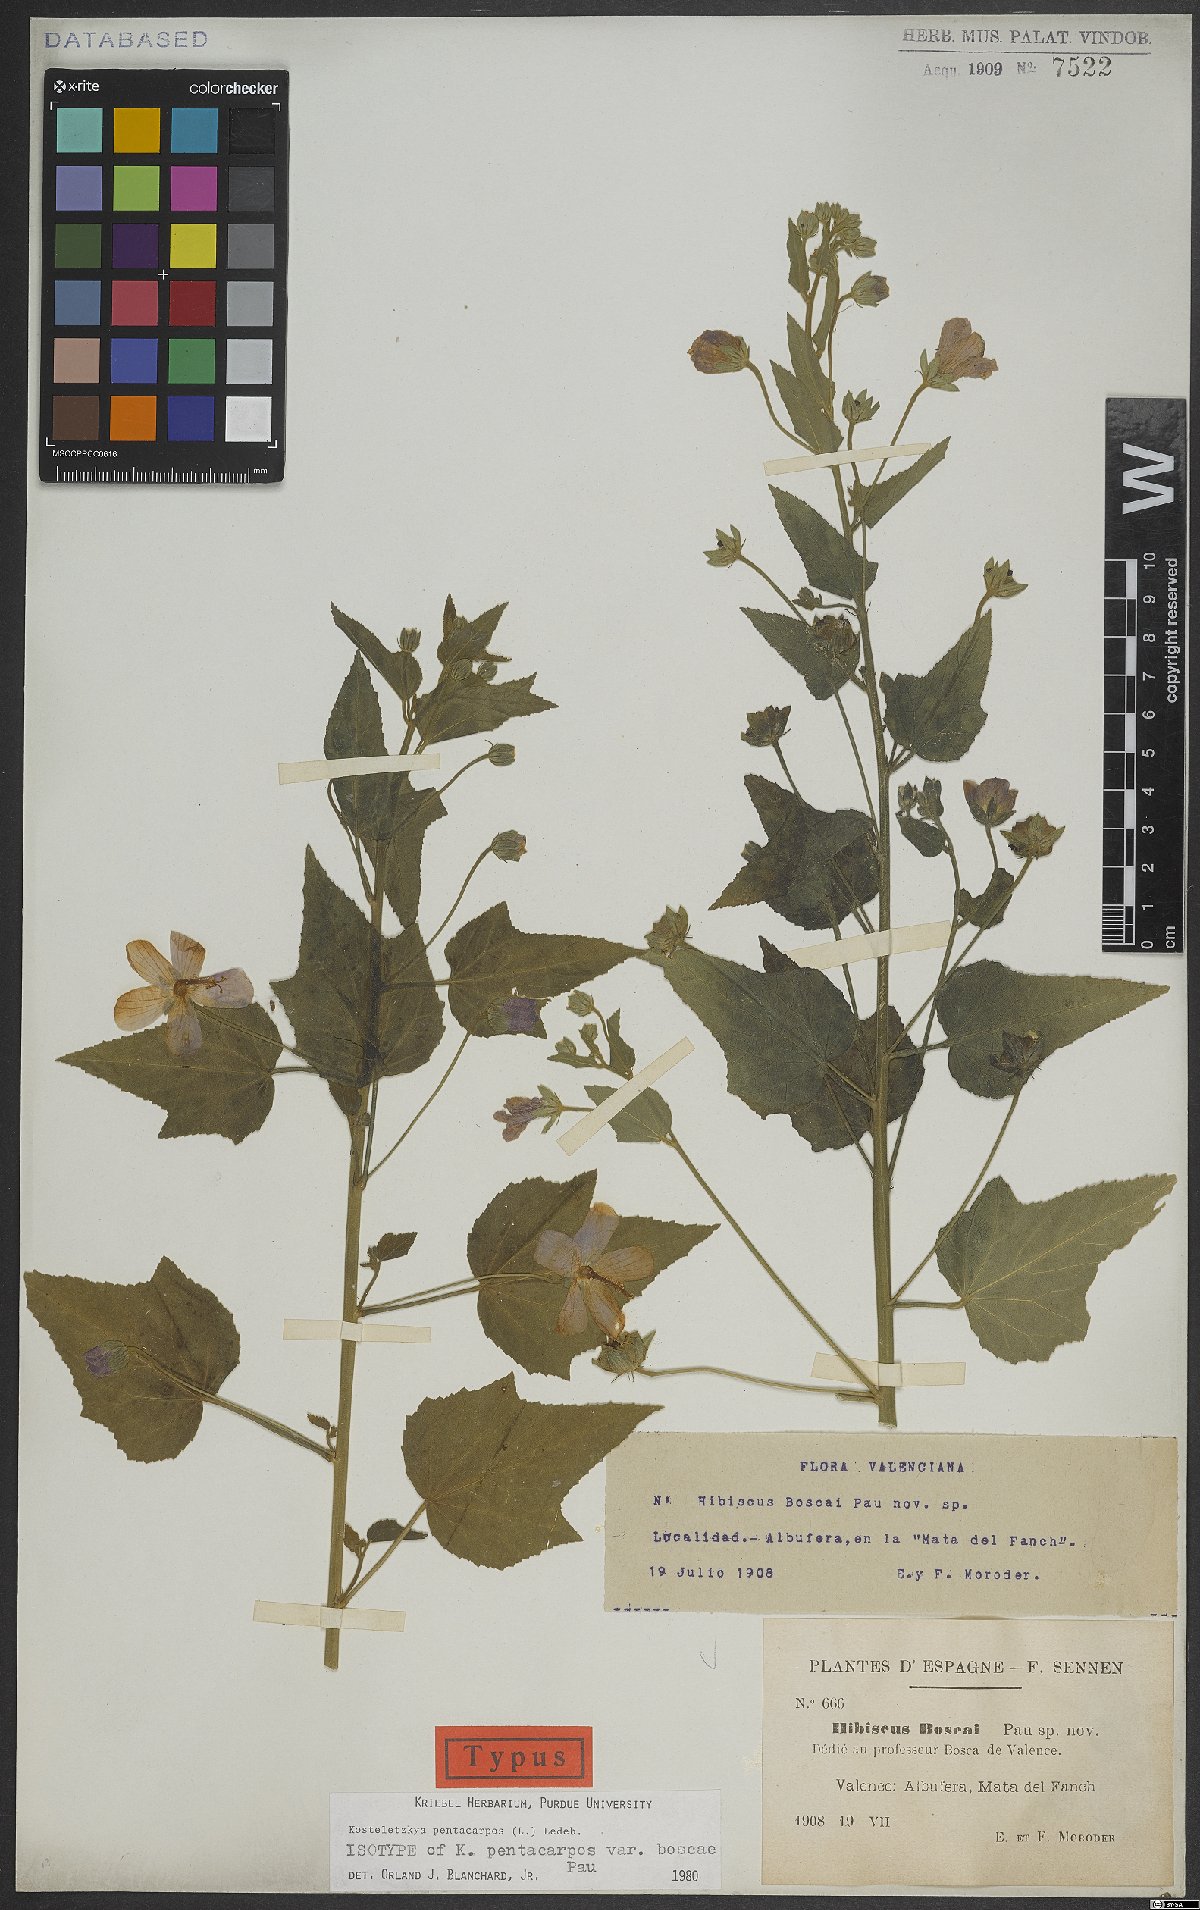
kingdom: Plantae
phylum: Tracheophyta
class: Magnoliopsida
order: Malvales
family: Malvaceae
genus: Kosteletzkya
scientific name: Kosteletzkya pentacarpos
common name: Virginia saltmarsh mallow
